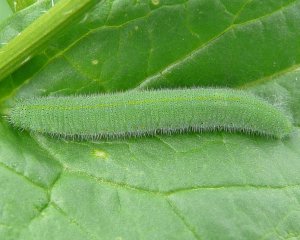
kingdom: Animalia
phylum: Arthropoda
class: Insecta
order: Lepidoptera
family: Pieridae
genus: Pieris
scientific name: Pieris rapae
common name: Cabbage White
